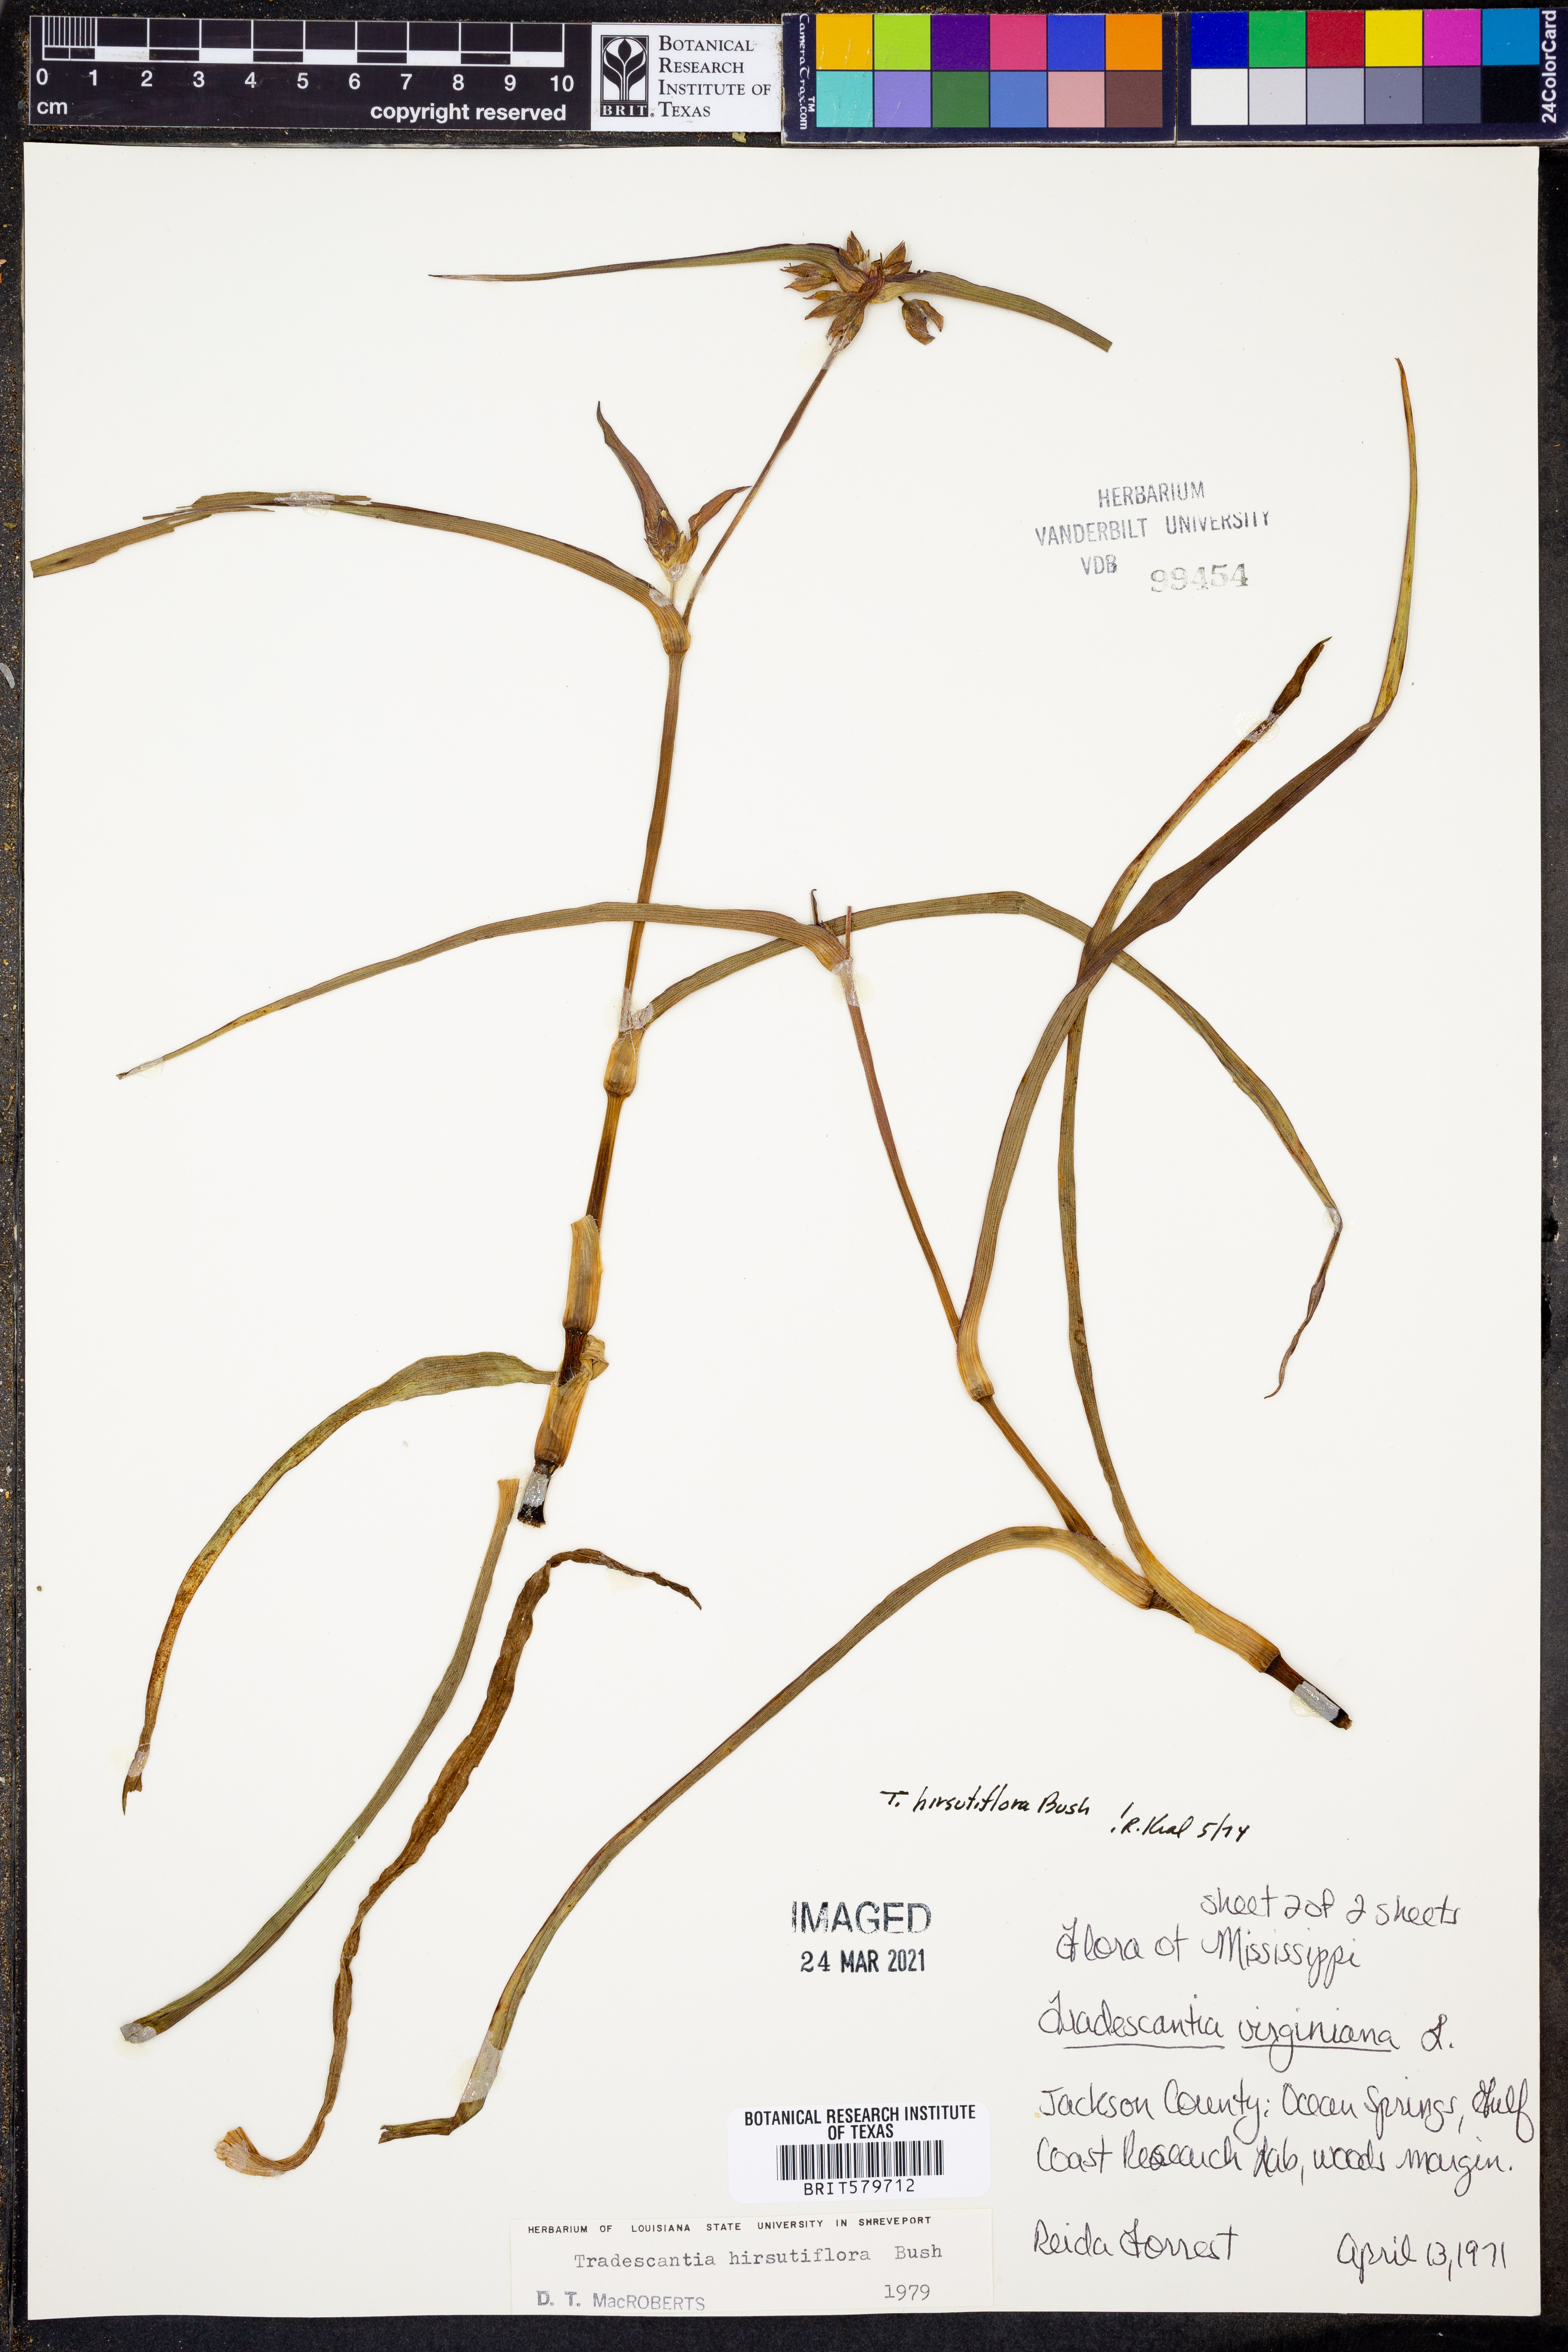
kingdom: Plantae
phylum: Tracheophyta
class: Liliopsida
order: Commelinales
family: Commelinaceae
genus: Tradescantia
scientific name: Tradescantia hirsutiflora
